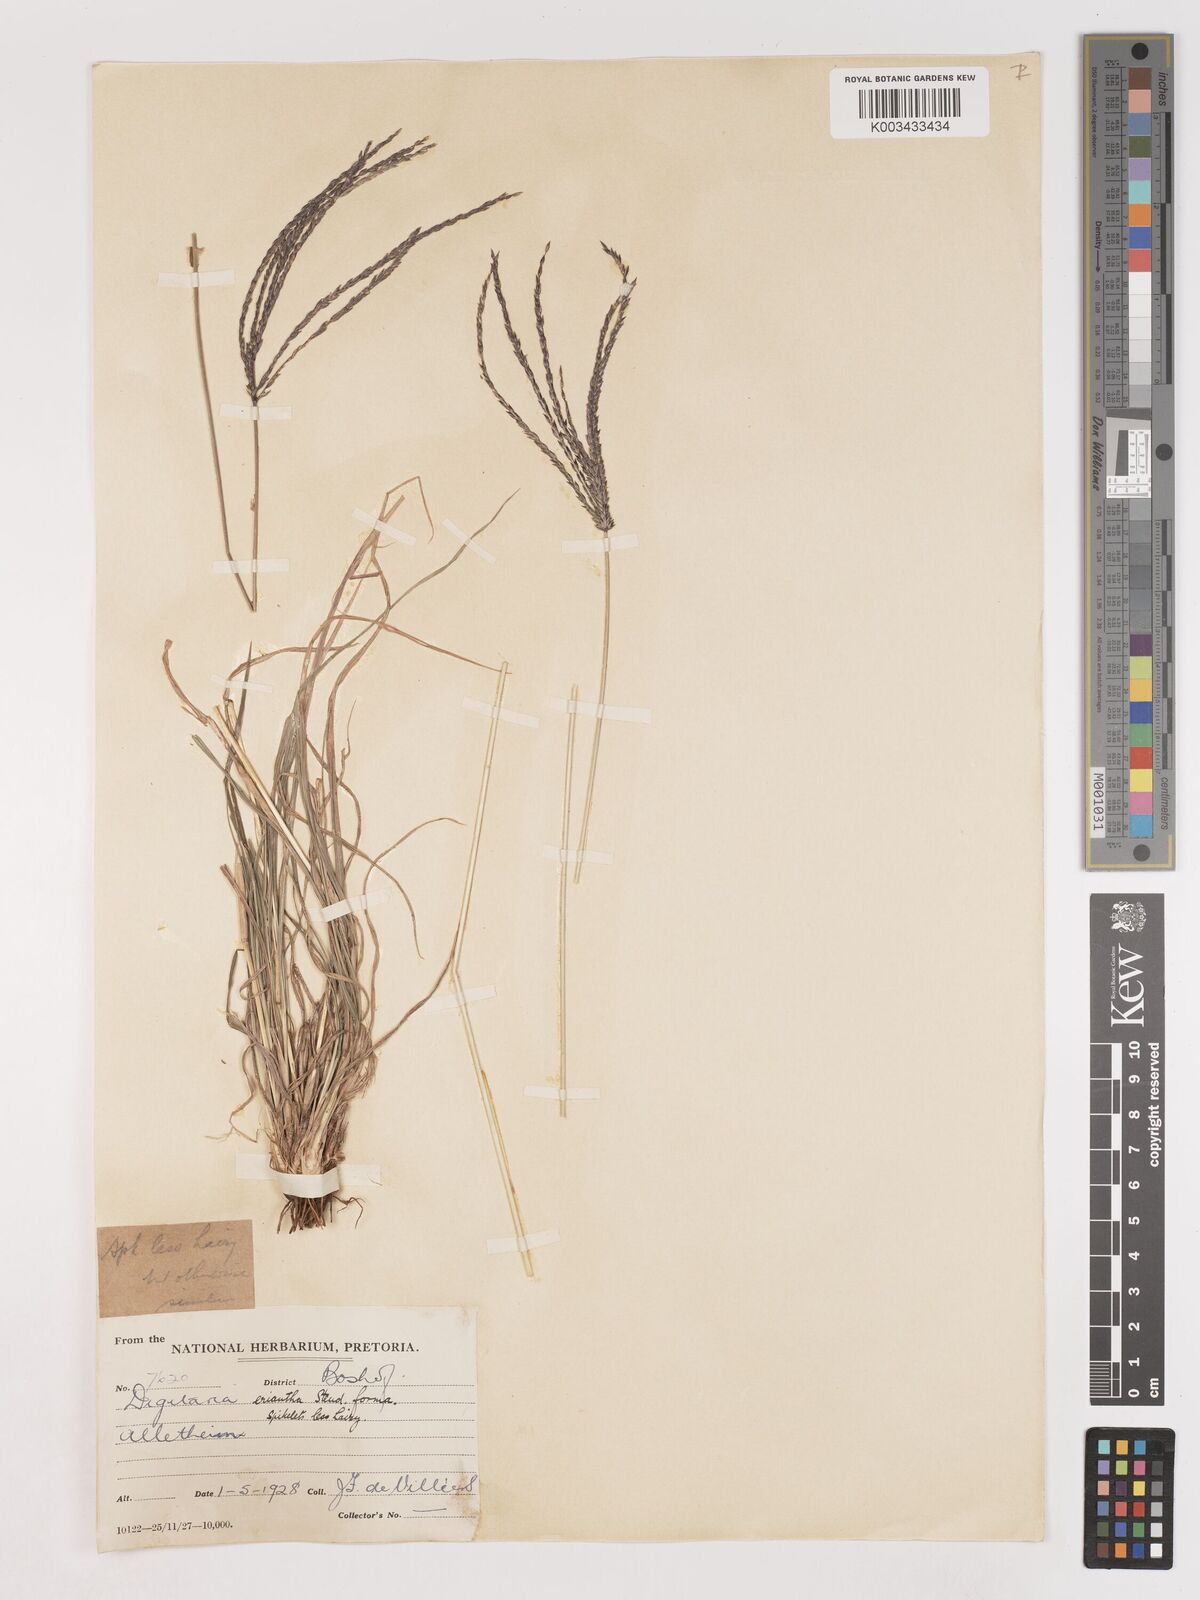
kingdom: Plantae
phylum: Tracheophyta
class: Liliopsida
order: Poales
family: Poaceae
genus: Digitaria
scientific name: Digitaria eriantha
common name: Digitgrass
